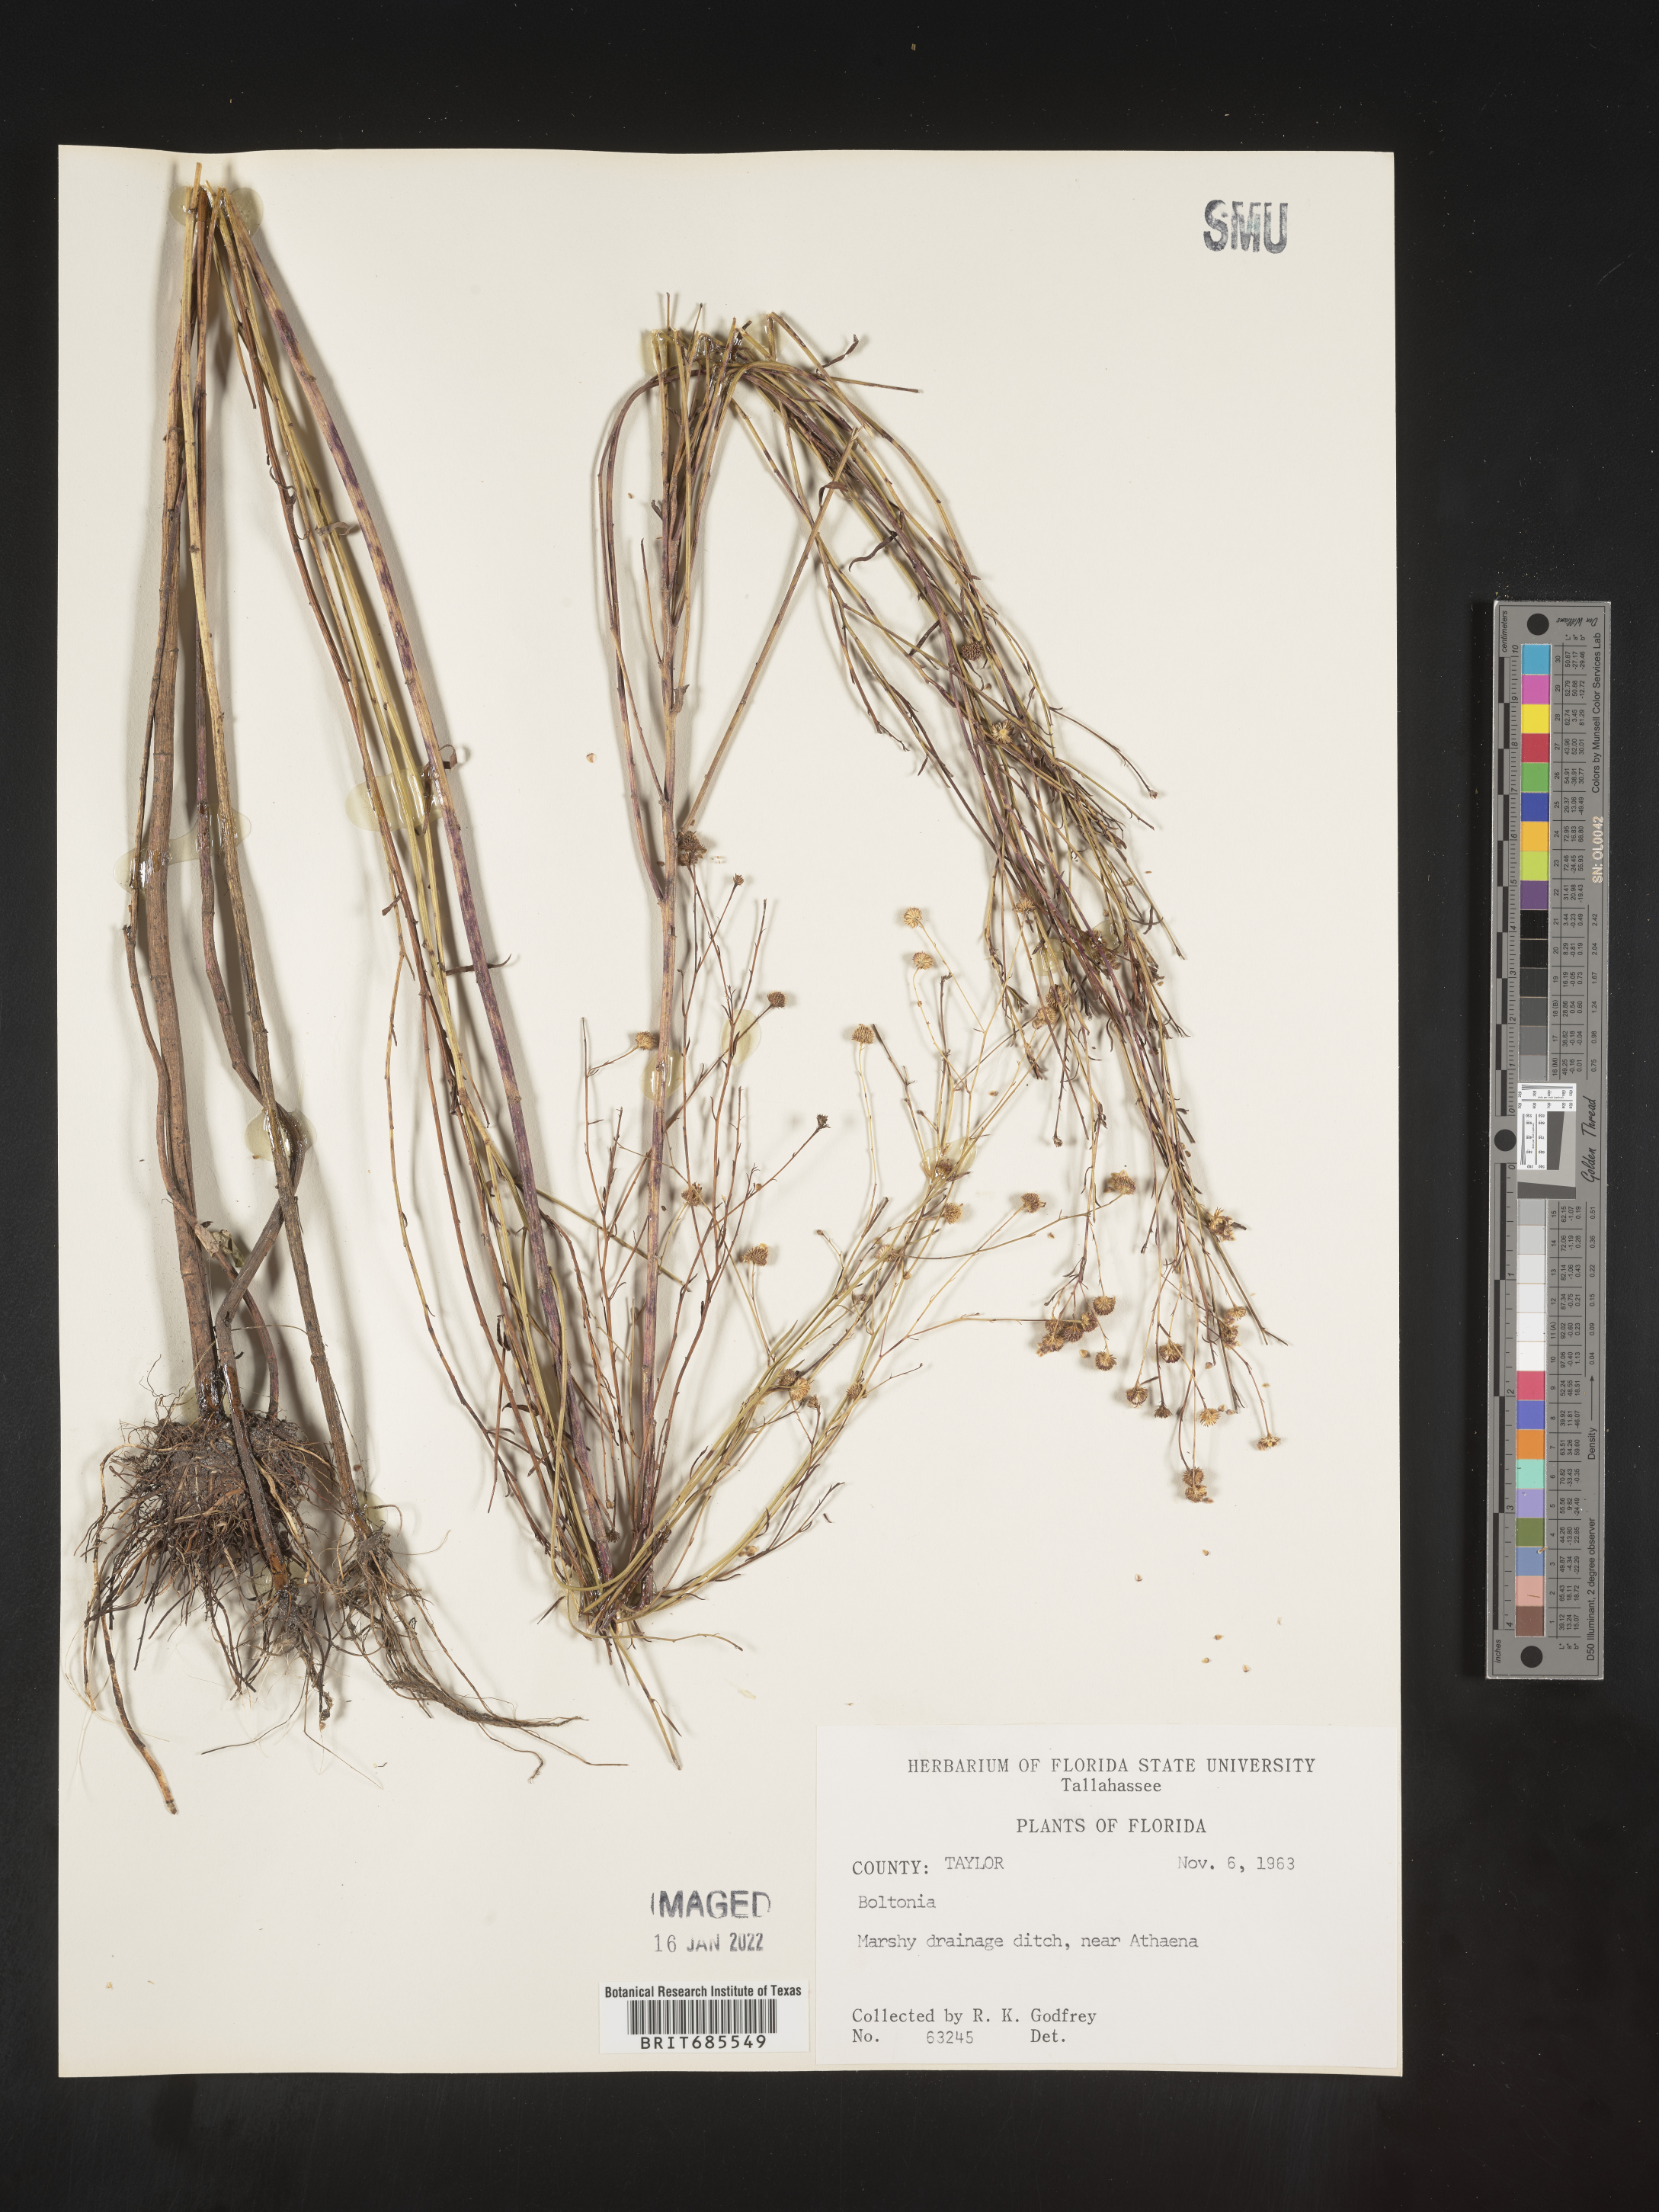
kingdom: Plantae
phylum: Tracheophyta
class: Magnoliopsida
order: Asterales
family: Asteraceae
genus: Boltonia
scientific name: Boltonia
